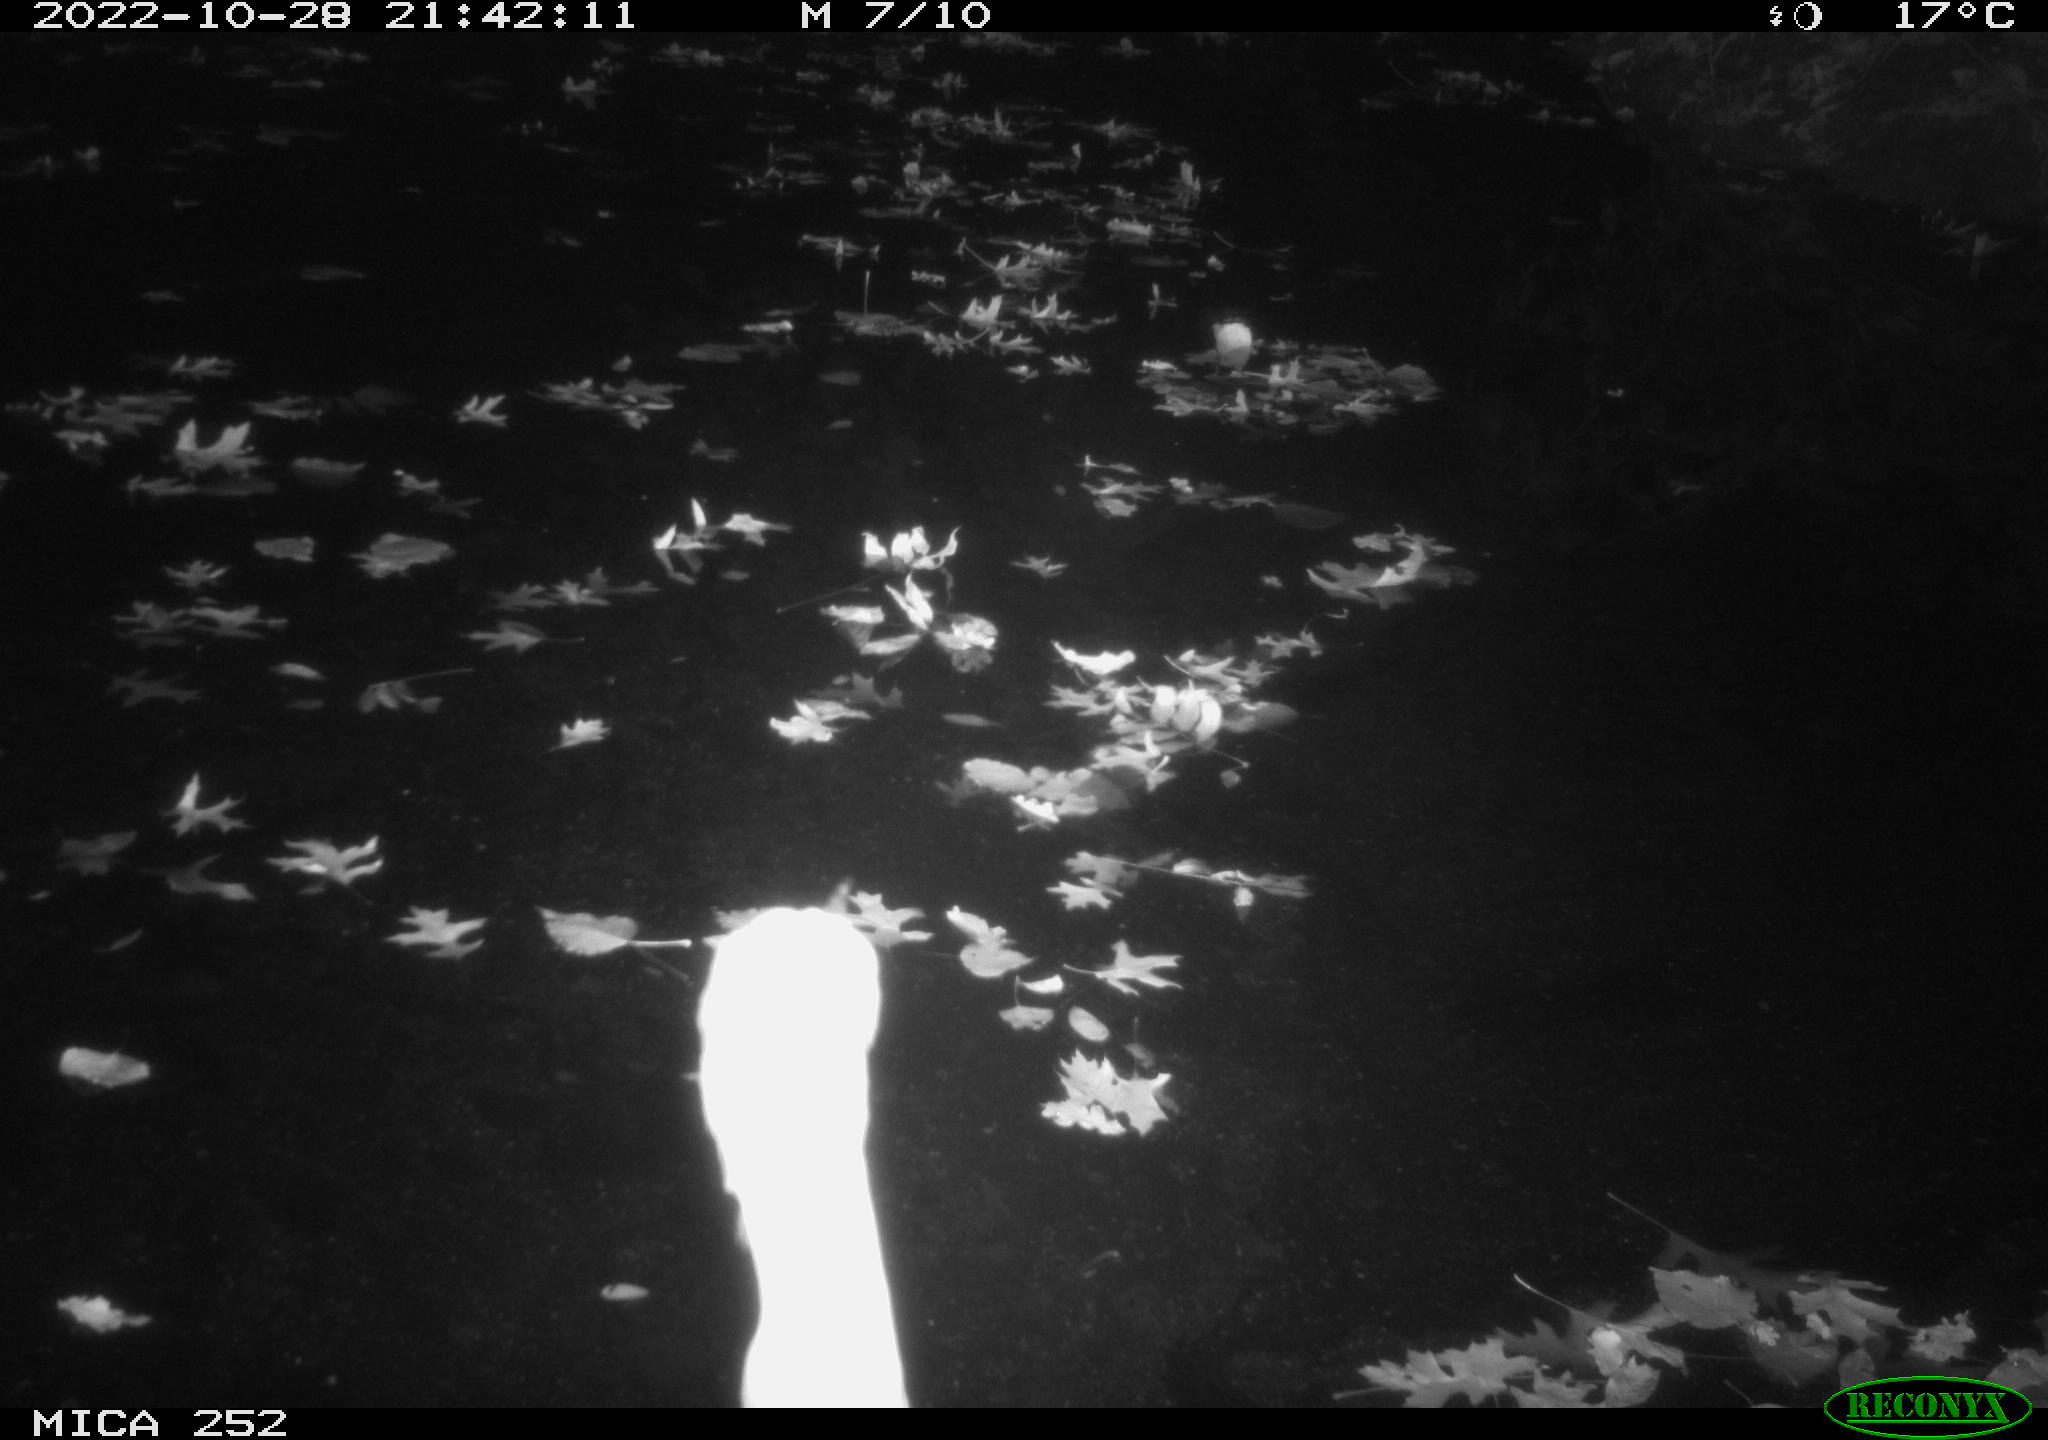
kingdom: Animalia
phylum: Chordata
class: Aves
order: Pelecaniformes
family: Ardeidae
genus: Ardea
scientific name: Ardea cinerea
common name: Grey heron
